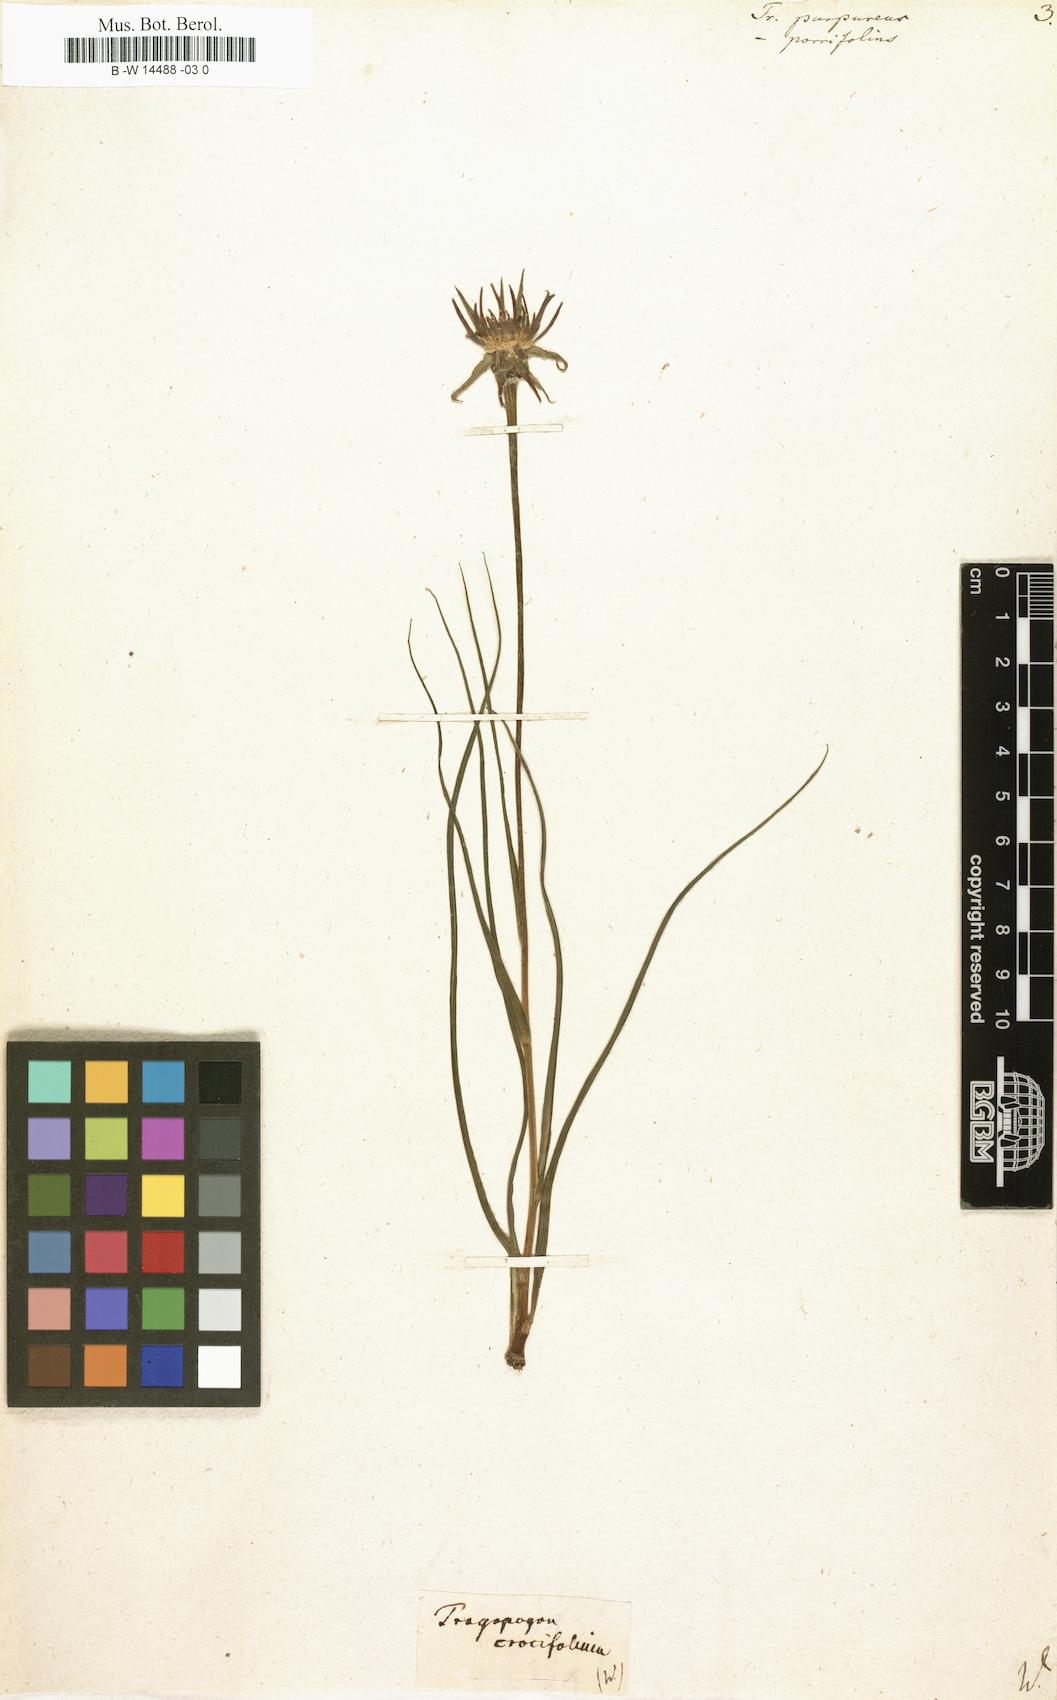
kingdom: Plantae
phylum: Tracheophyta
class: Magnoliopsida
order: Asterales
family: Asteraceae
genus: Tragopogon
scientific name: Tragopogon
